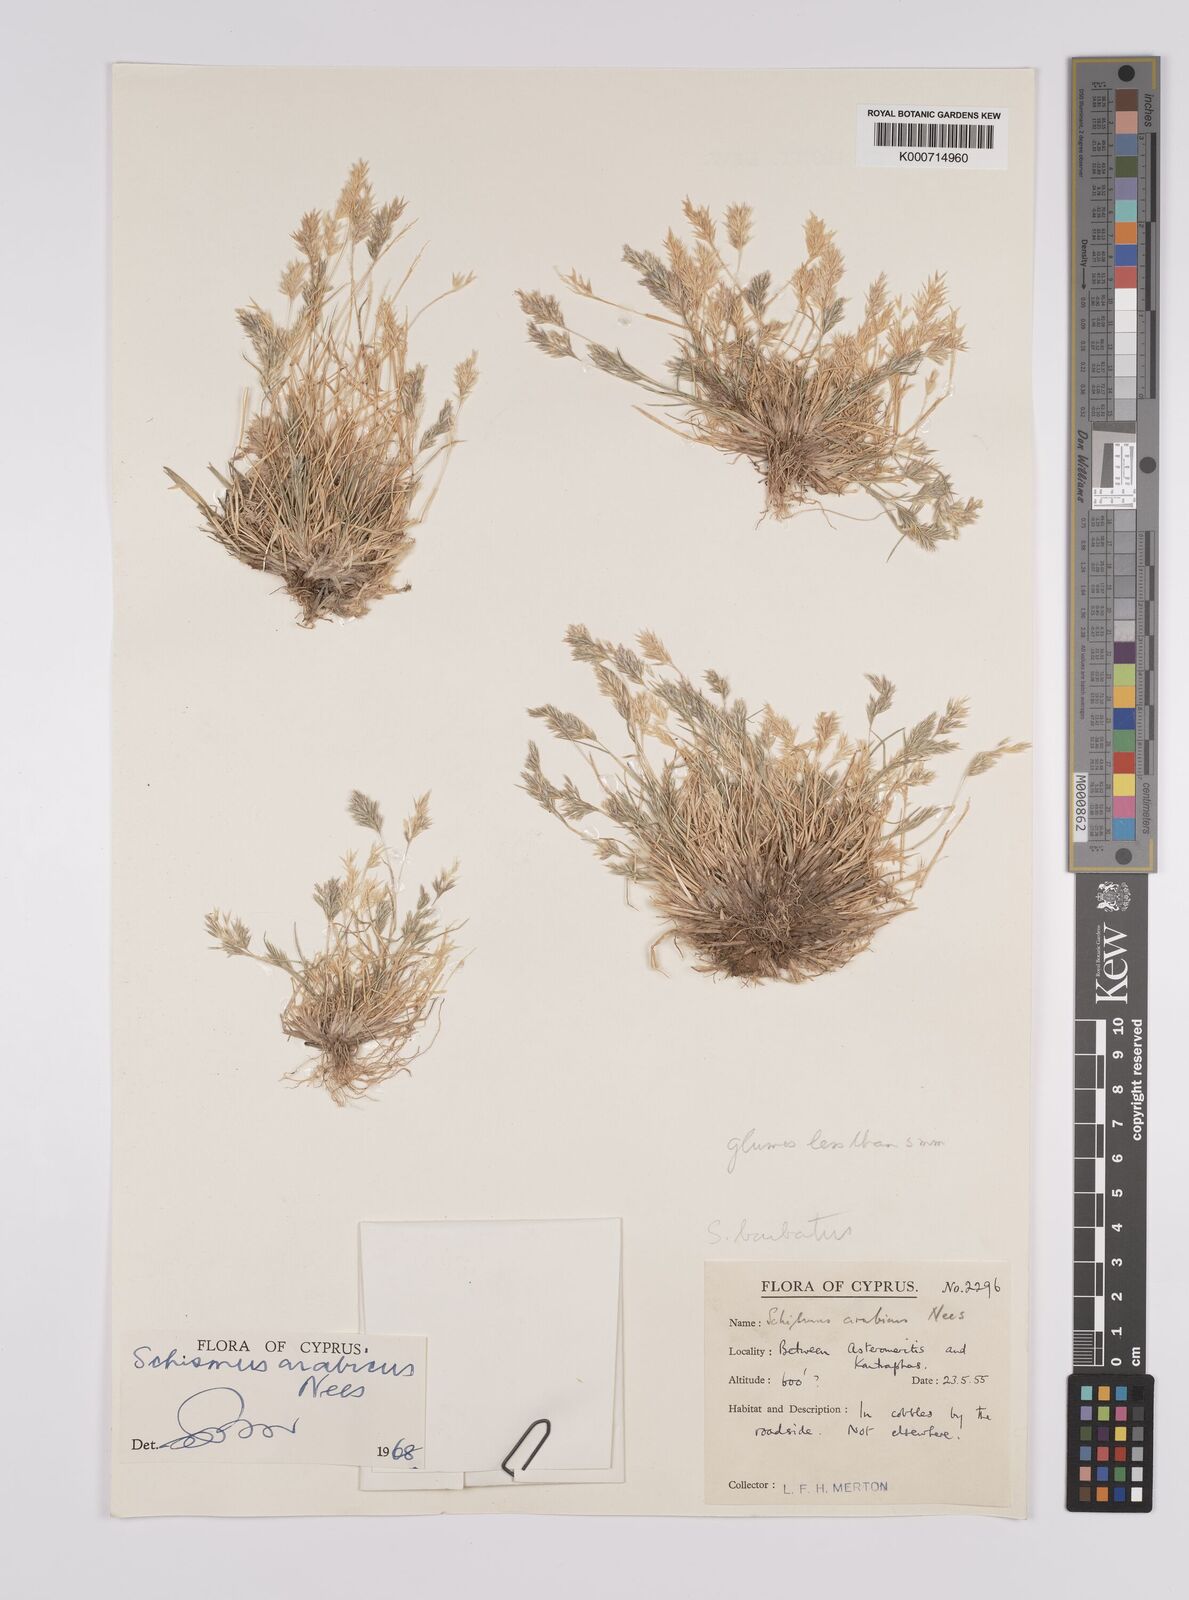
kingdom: Plantae
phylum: Tracheophyta
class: Liliopsida
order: Poales
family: Poaceae
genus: Schismus
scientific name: Schismus arabicus
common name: Arabian schismus
